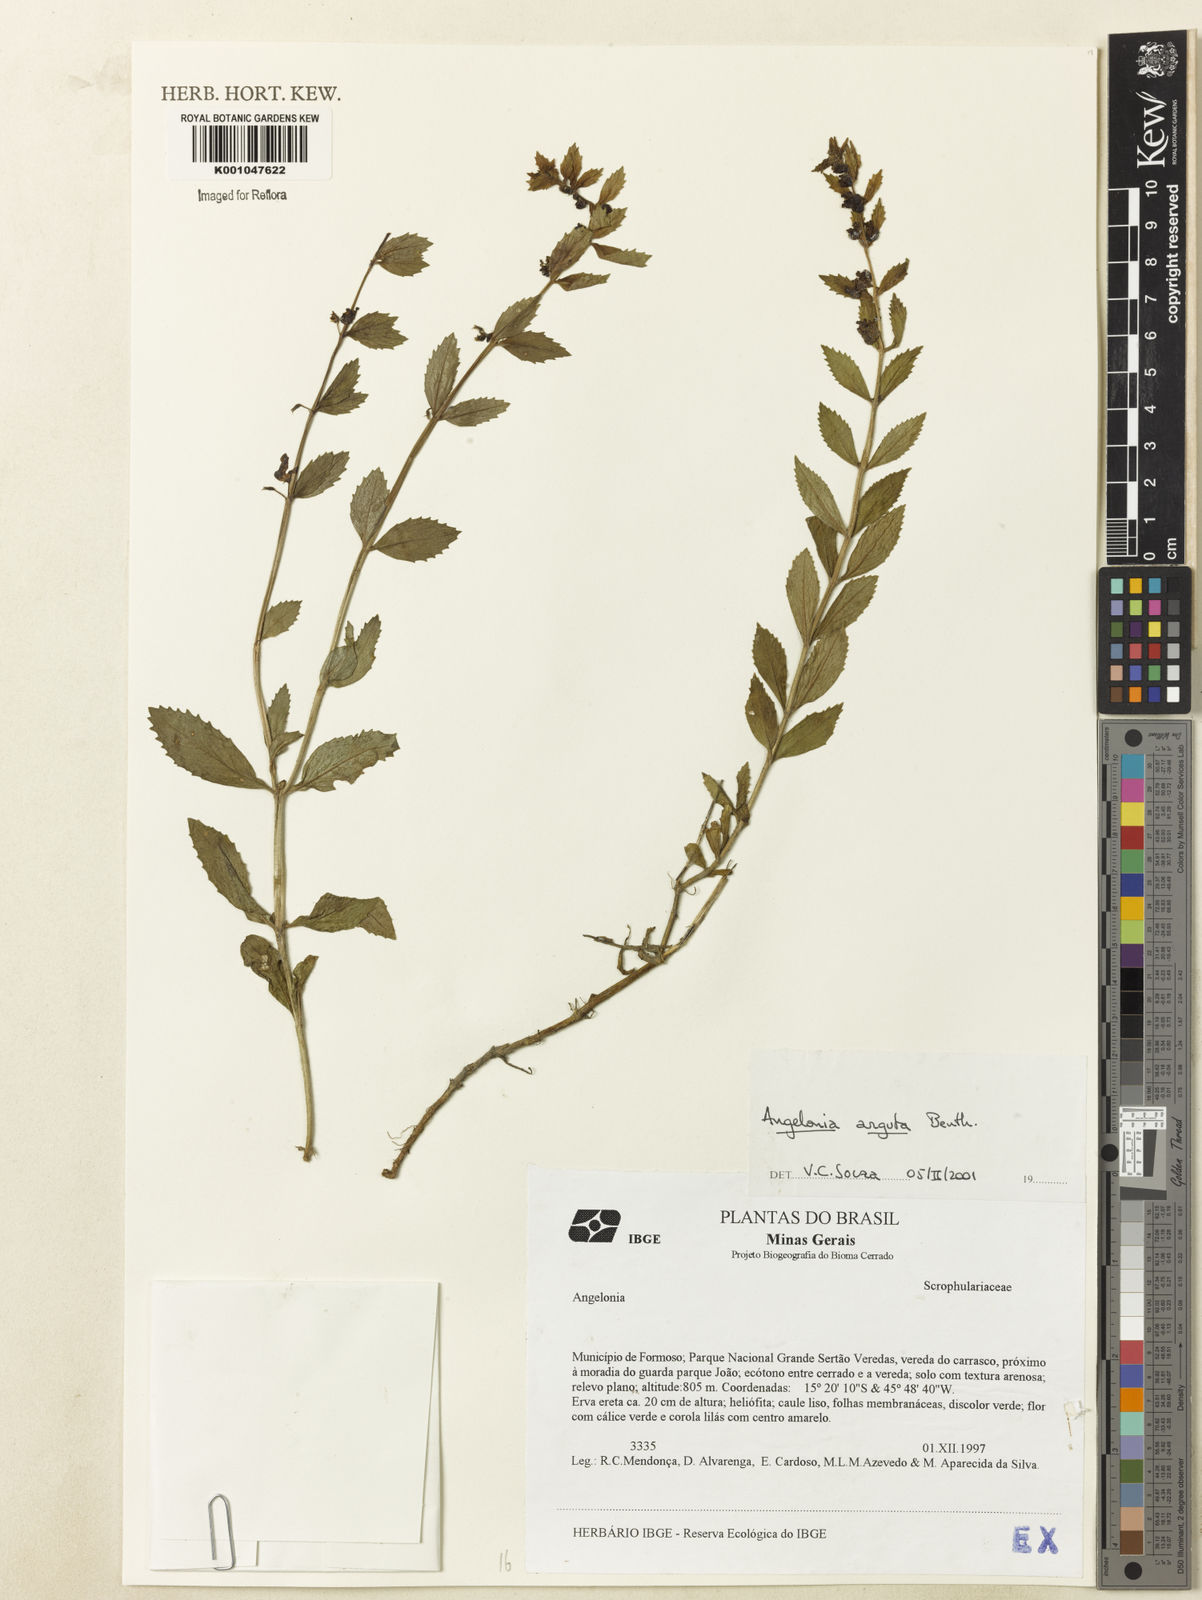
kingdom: Plantae
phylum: Tracheophyta
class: Magnoliopsida
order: Lamiales
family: Plantaginaceae
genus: Angelonia
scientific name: Angelonia arguta
